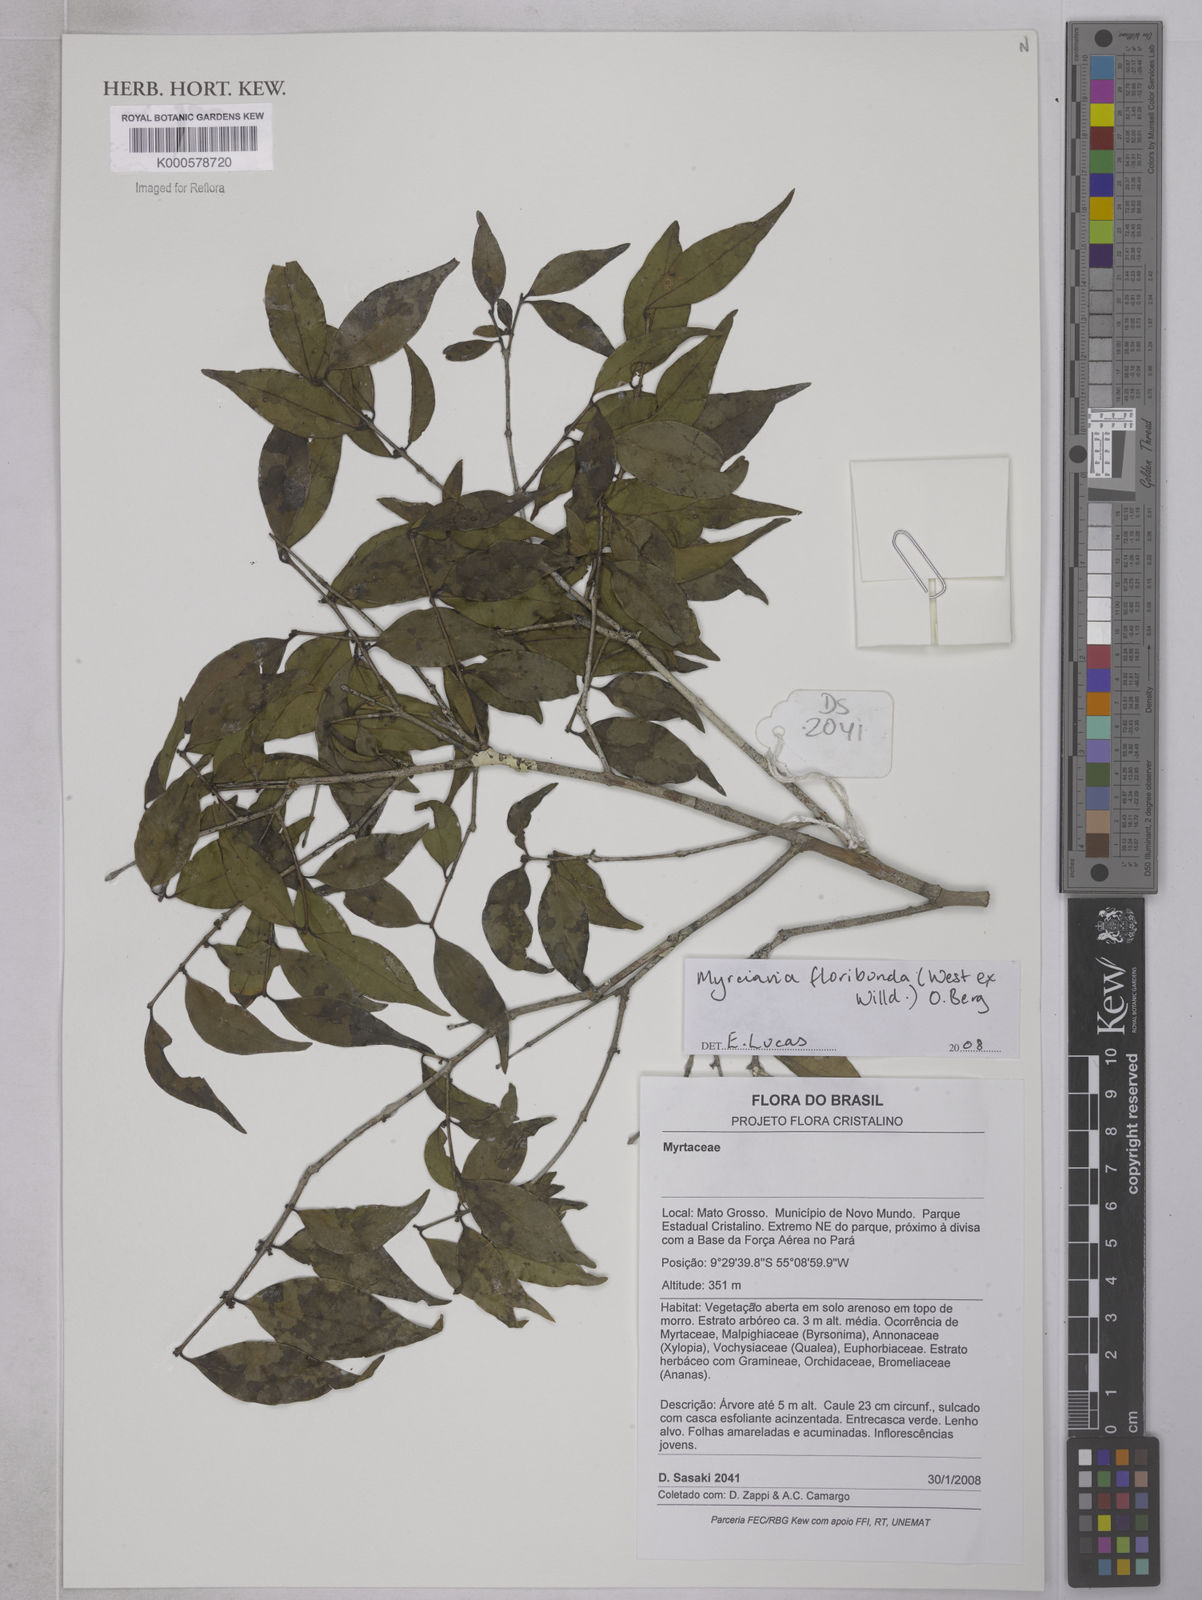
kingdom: Plantae
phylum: Tracheophyta
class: Magnoliopsida
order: Myrtales
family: Myrtaceae
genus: Myrciaria
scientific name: Myrciaria floribunda
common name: Guavaberry
